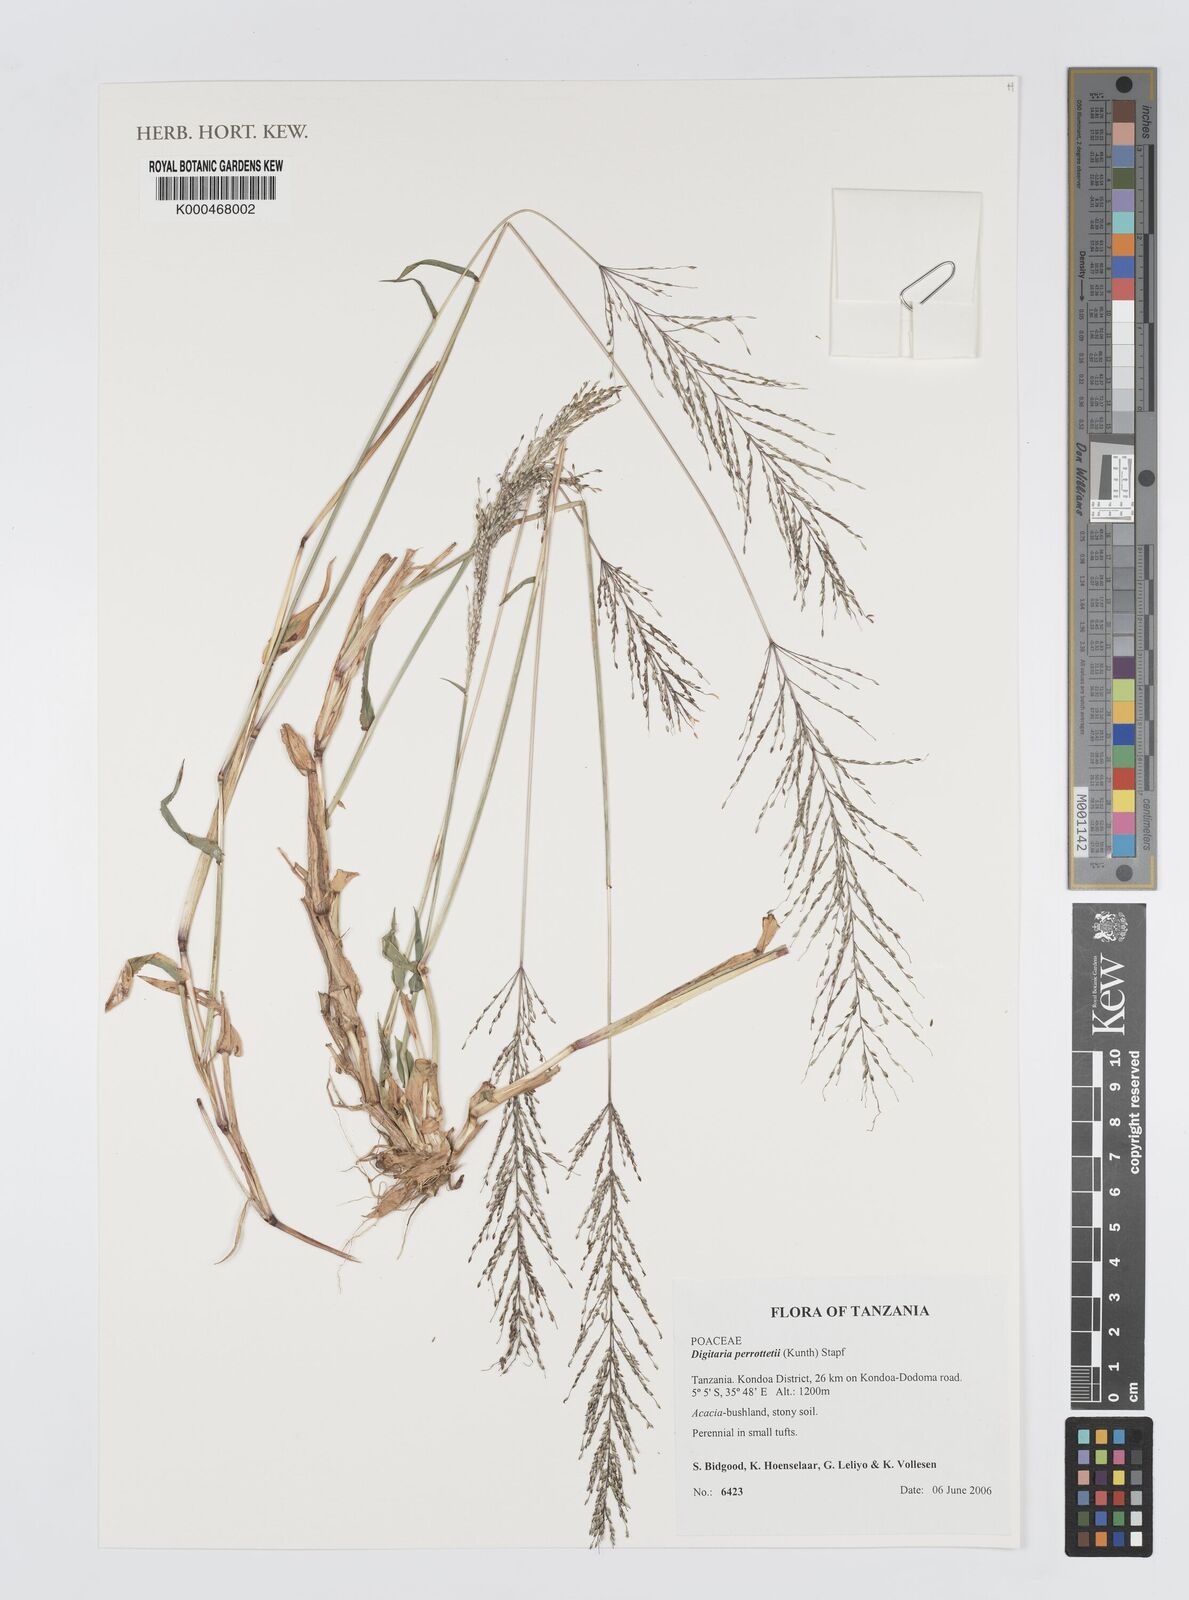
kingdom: Plantae
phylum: Tracheophyta
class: Liliopsida
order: Poales
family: Poaceae
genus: Digitaria
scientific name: Digitaria perrottetii
